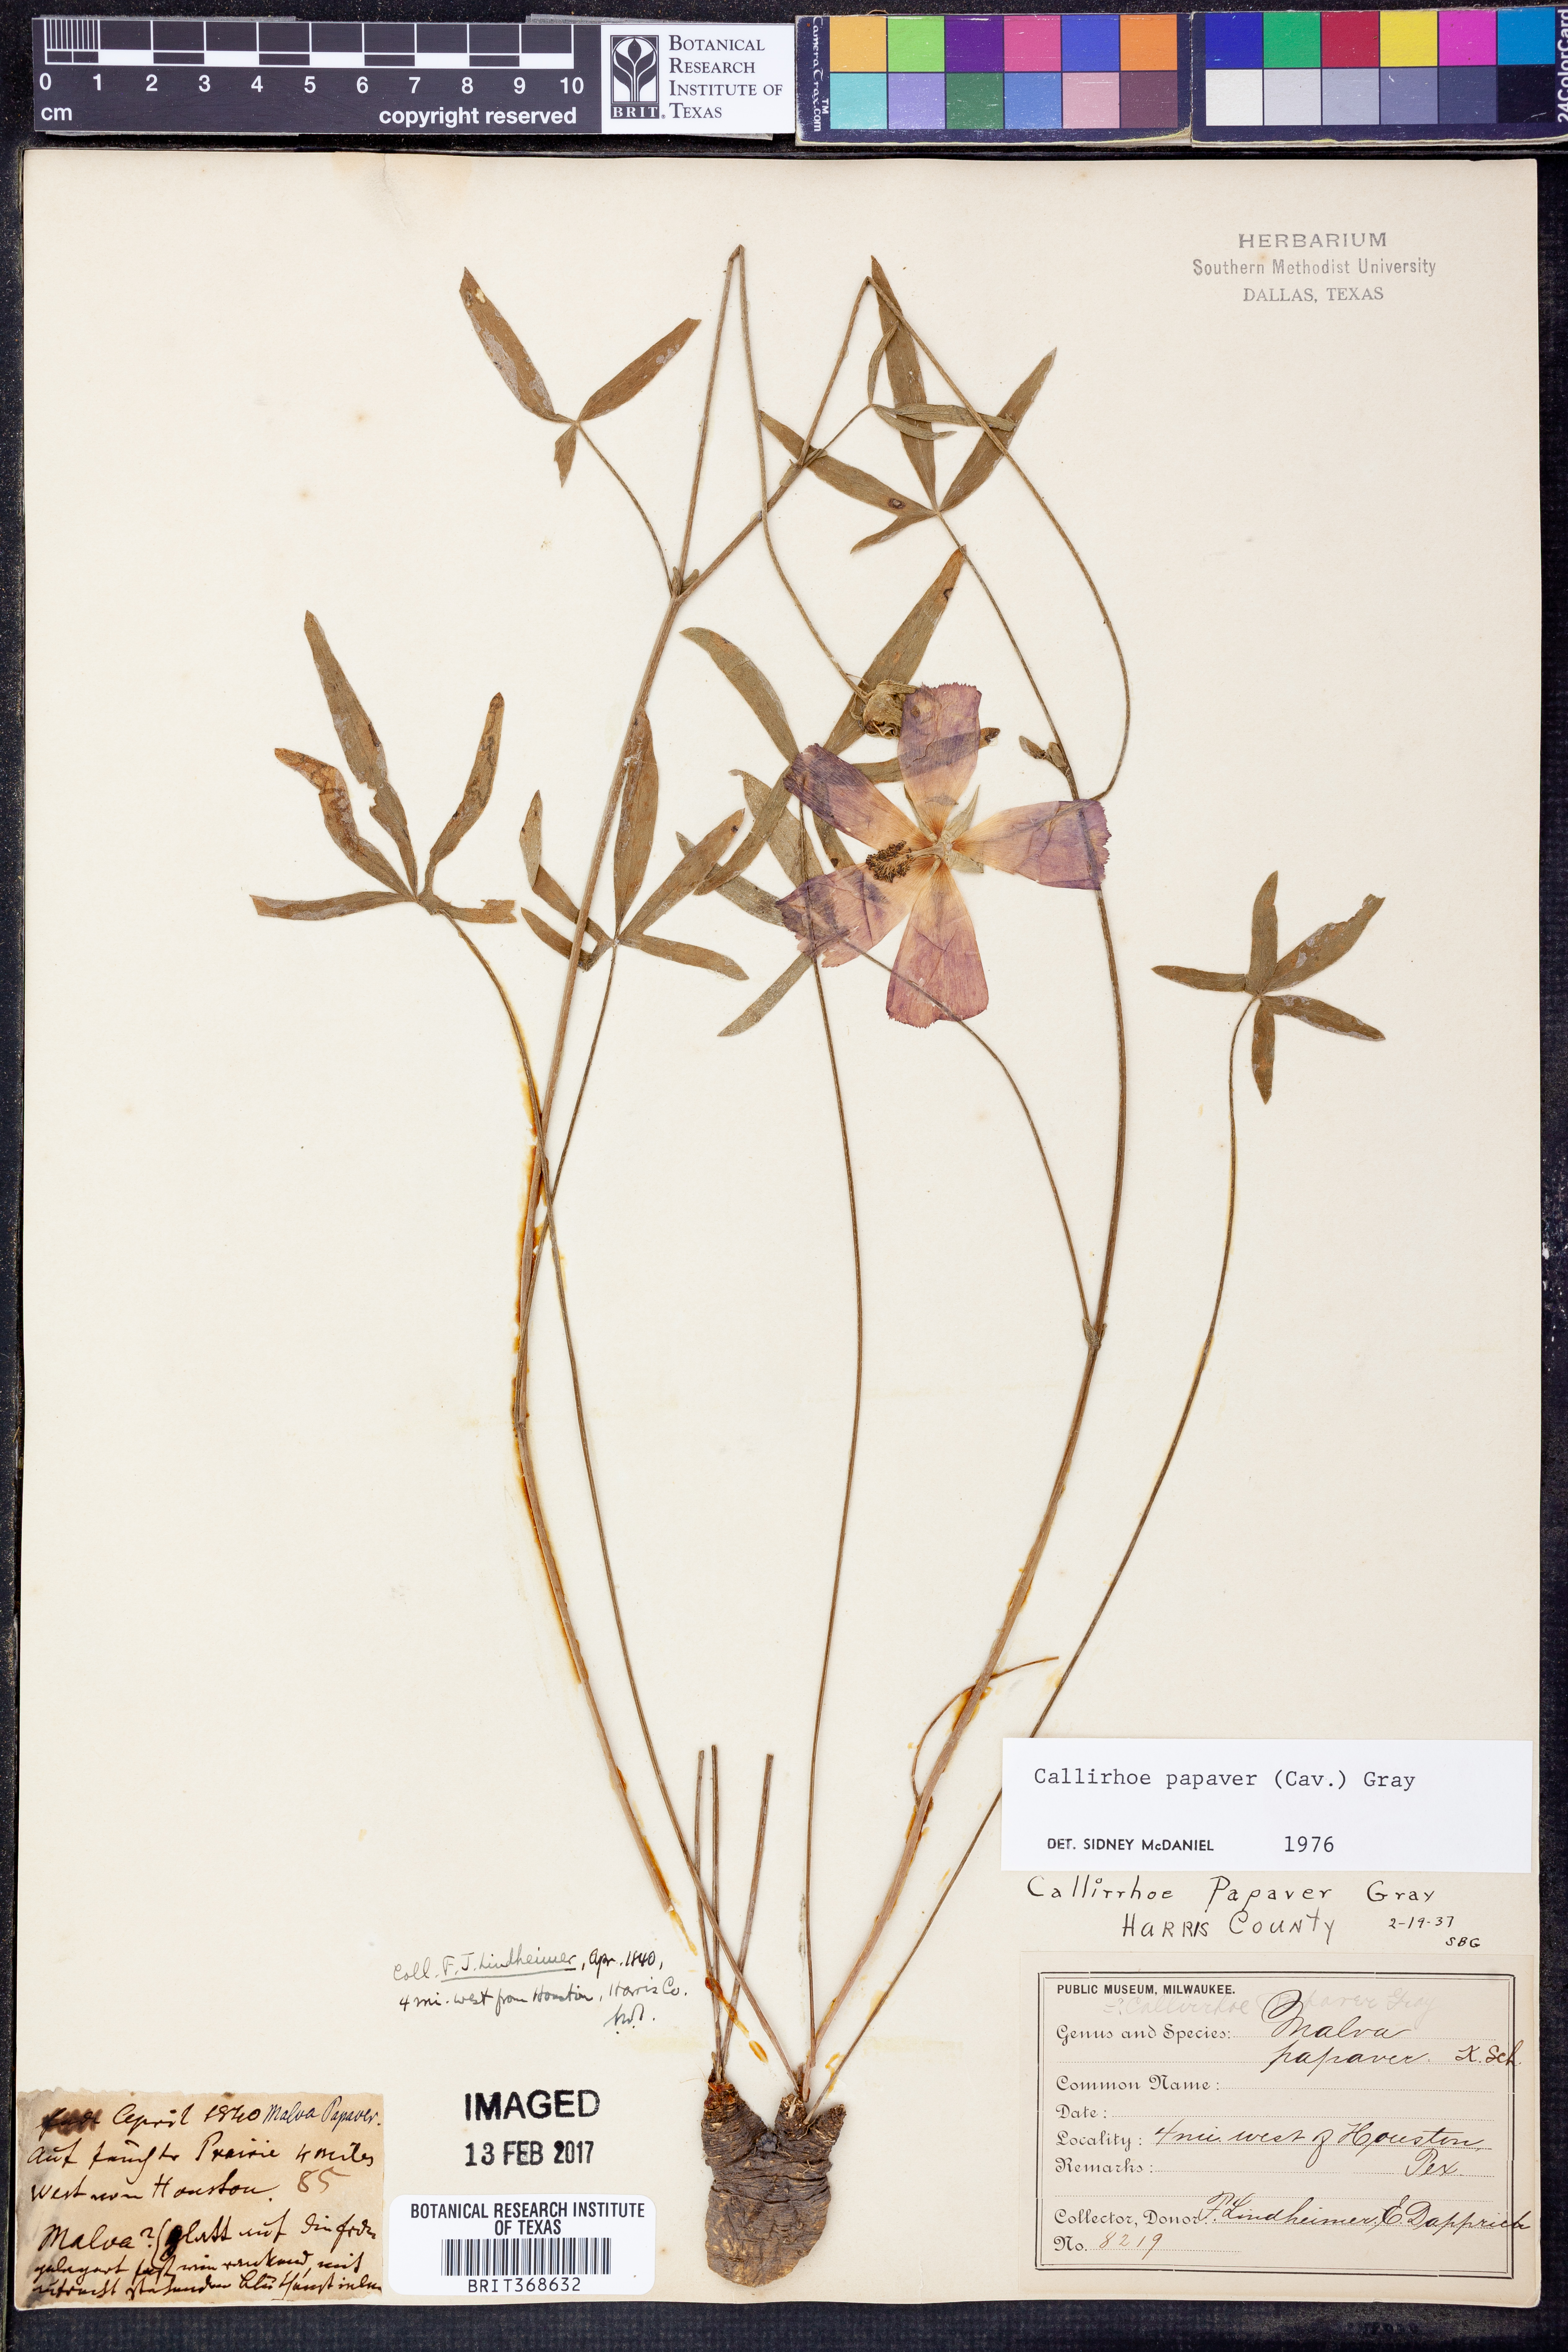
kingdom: Plantae
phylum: Tracheophyta
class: Magnoliopsida
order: Malvales
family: Malvaceae
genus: Callirhoe
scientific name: Callirhoe papaver
